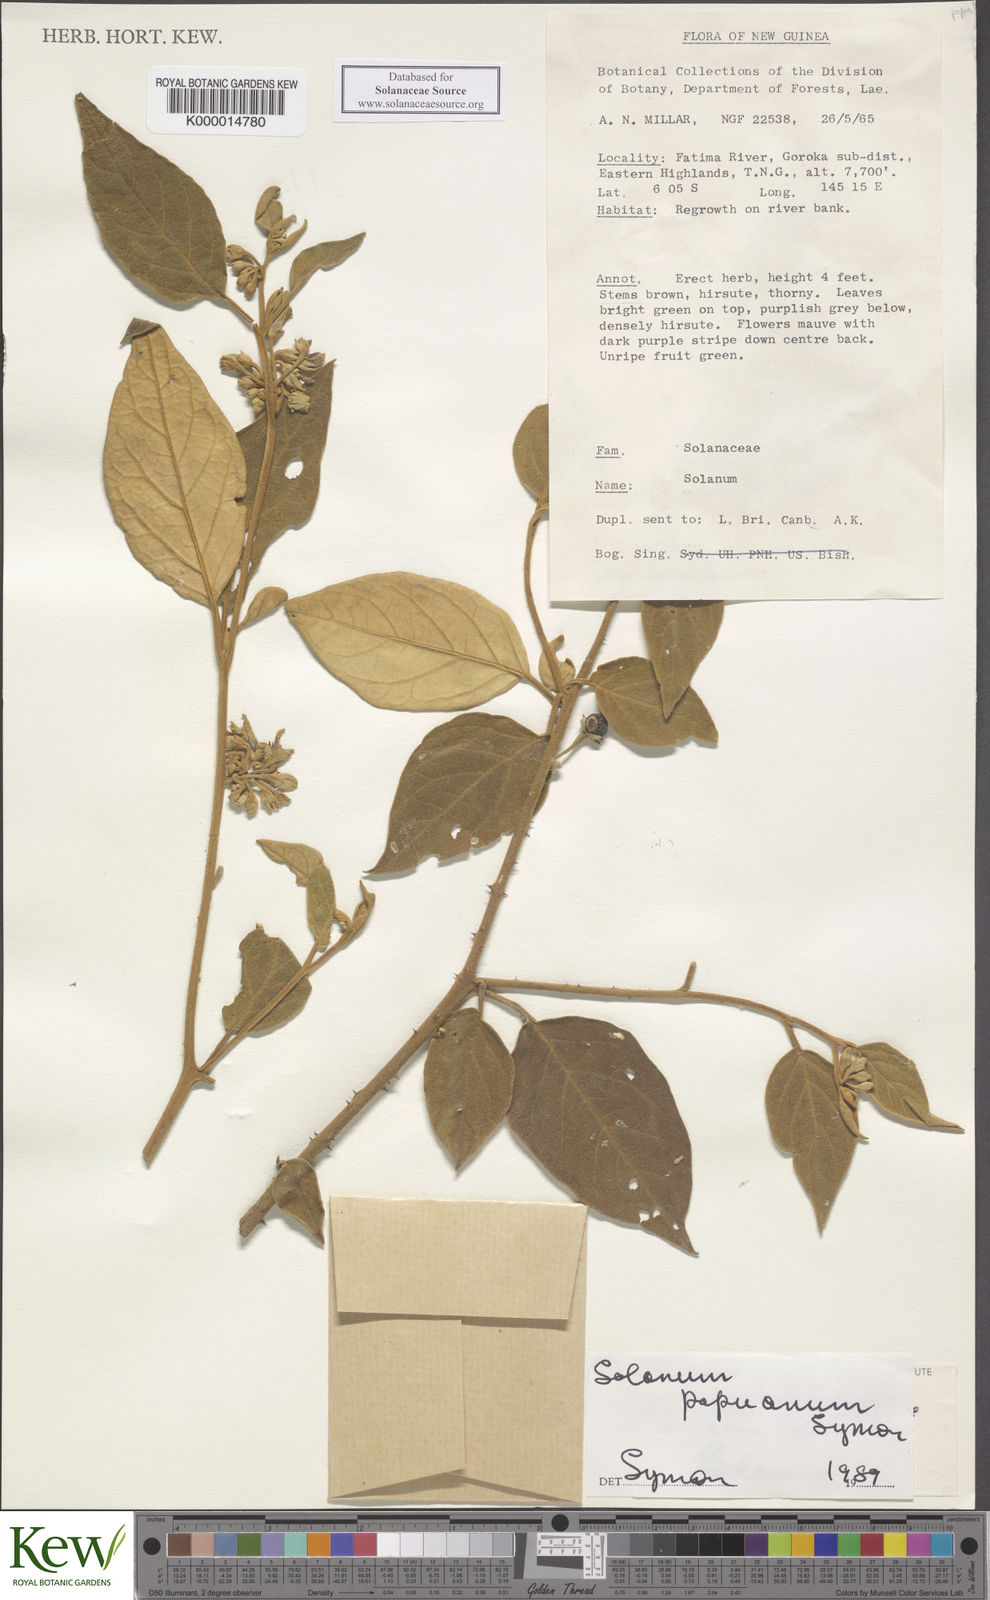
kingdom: Plantae
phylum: Tracheophyta
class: Magnoliopsida
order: Solanales
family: Solanaceae
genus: Solanum
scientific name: Solanum papuanum
